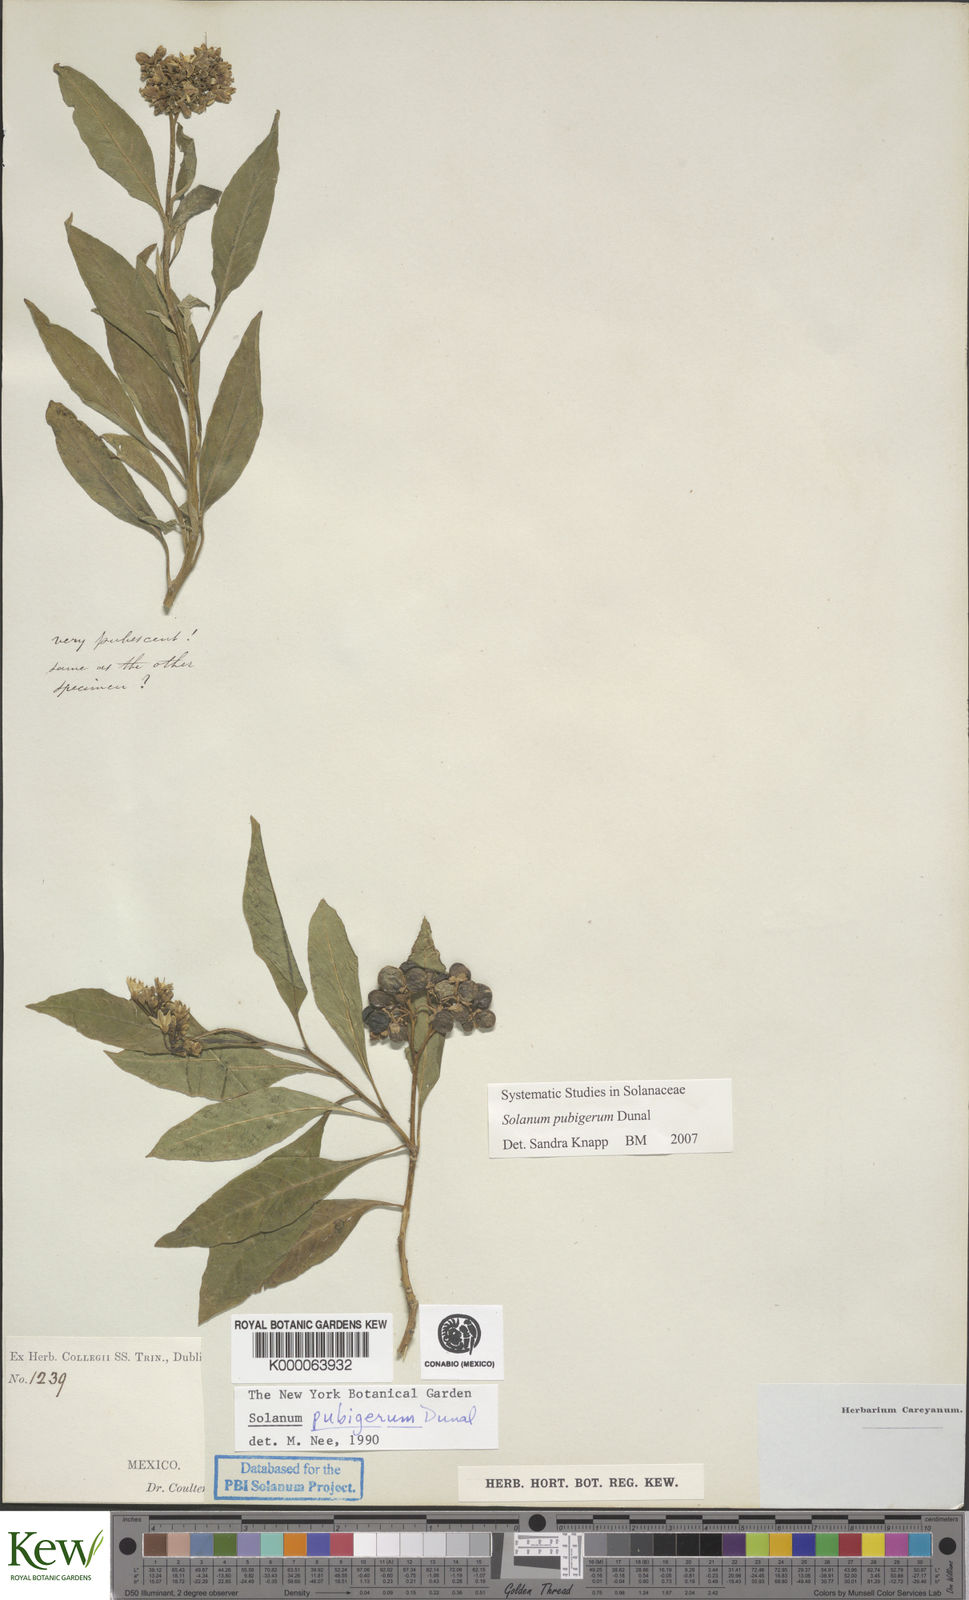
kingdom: Plantae
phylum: Tracheophyta
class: Magnoliopsida
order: Solanales
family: Solanaceae
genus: Solanum
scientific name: Solanum pubigerum
